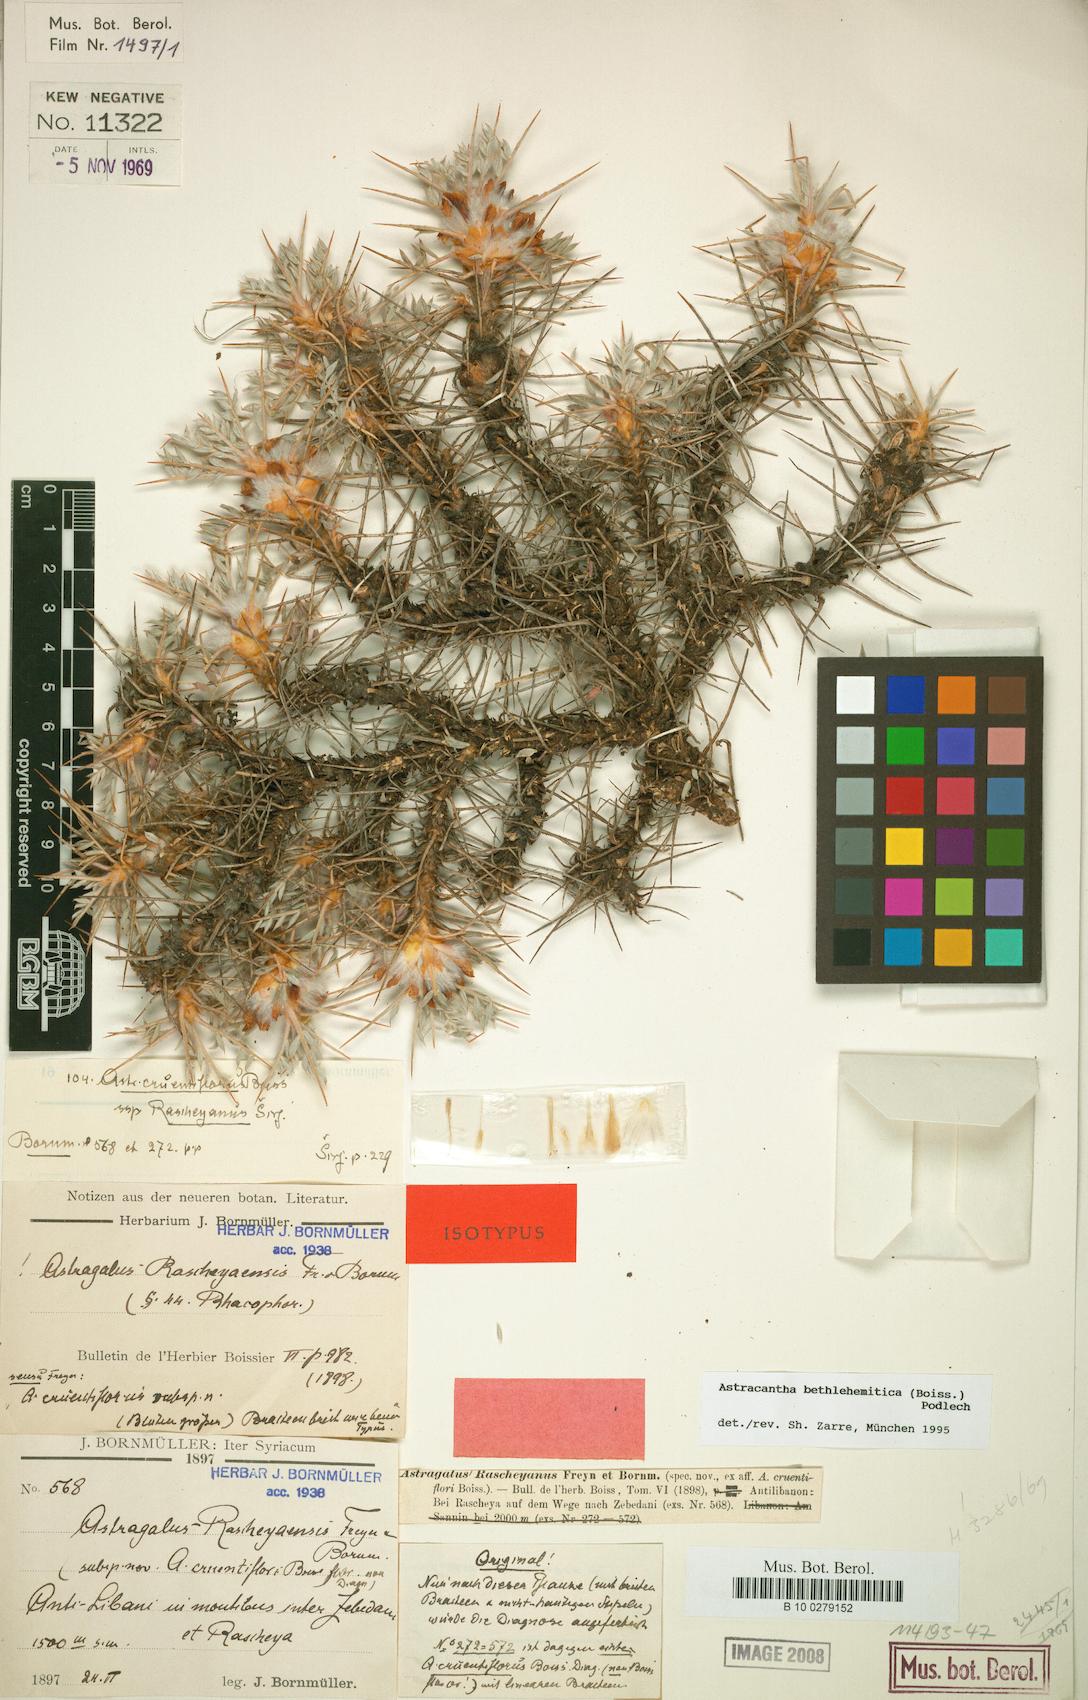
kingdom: Plantae
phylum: Tracheophyta
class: Magnoliopsida
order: Fabales
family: Fabaceae
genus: Astragalus
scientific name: Astragalus bethlehemiticus
